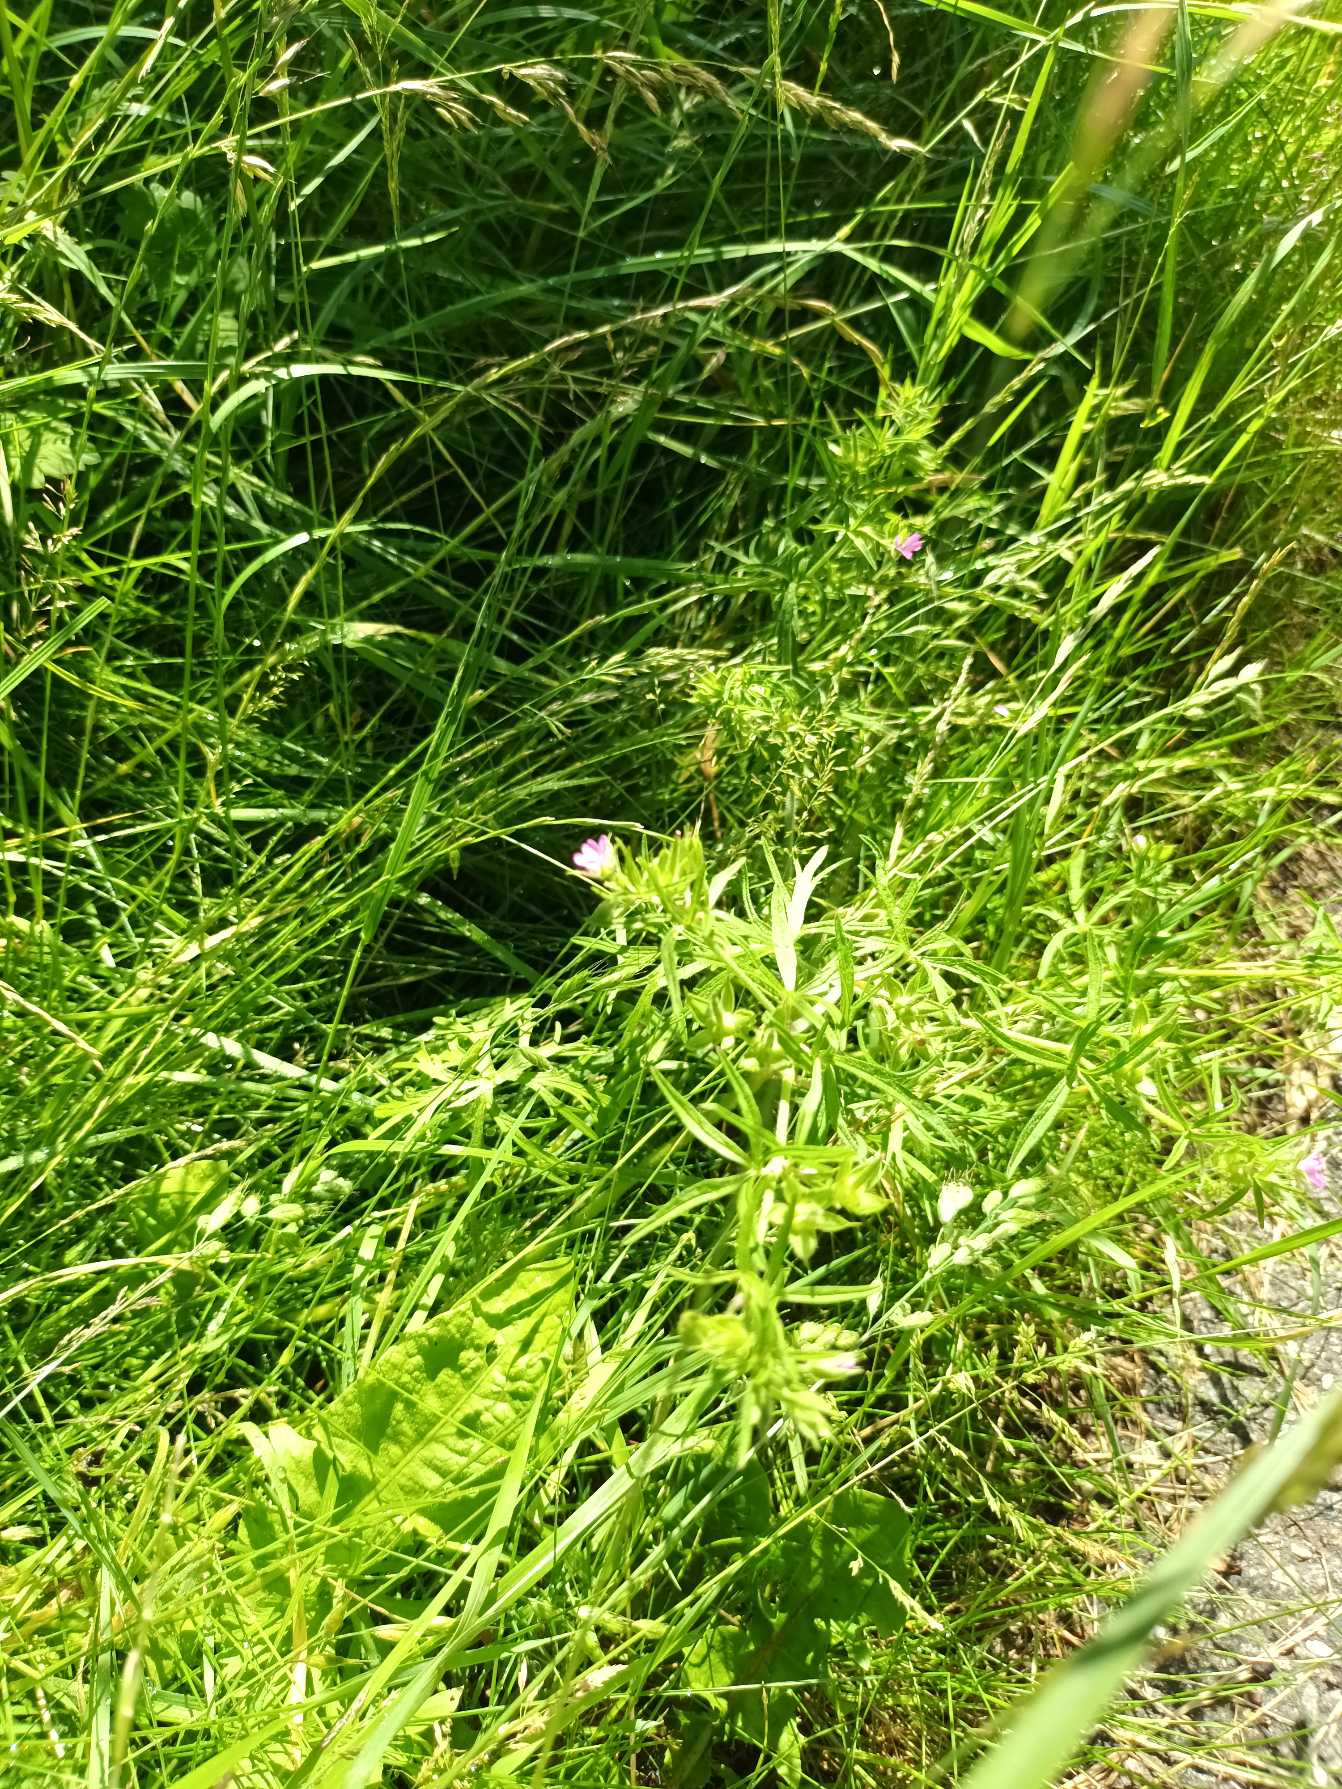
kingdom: Plantae
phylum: Tracheophyta
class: Magnoliopsida
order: Geraniales
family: Geraniaceae
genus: Geranium
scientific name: Geranium dissectum
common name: Kløftet storkenæb
